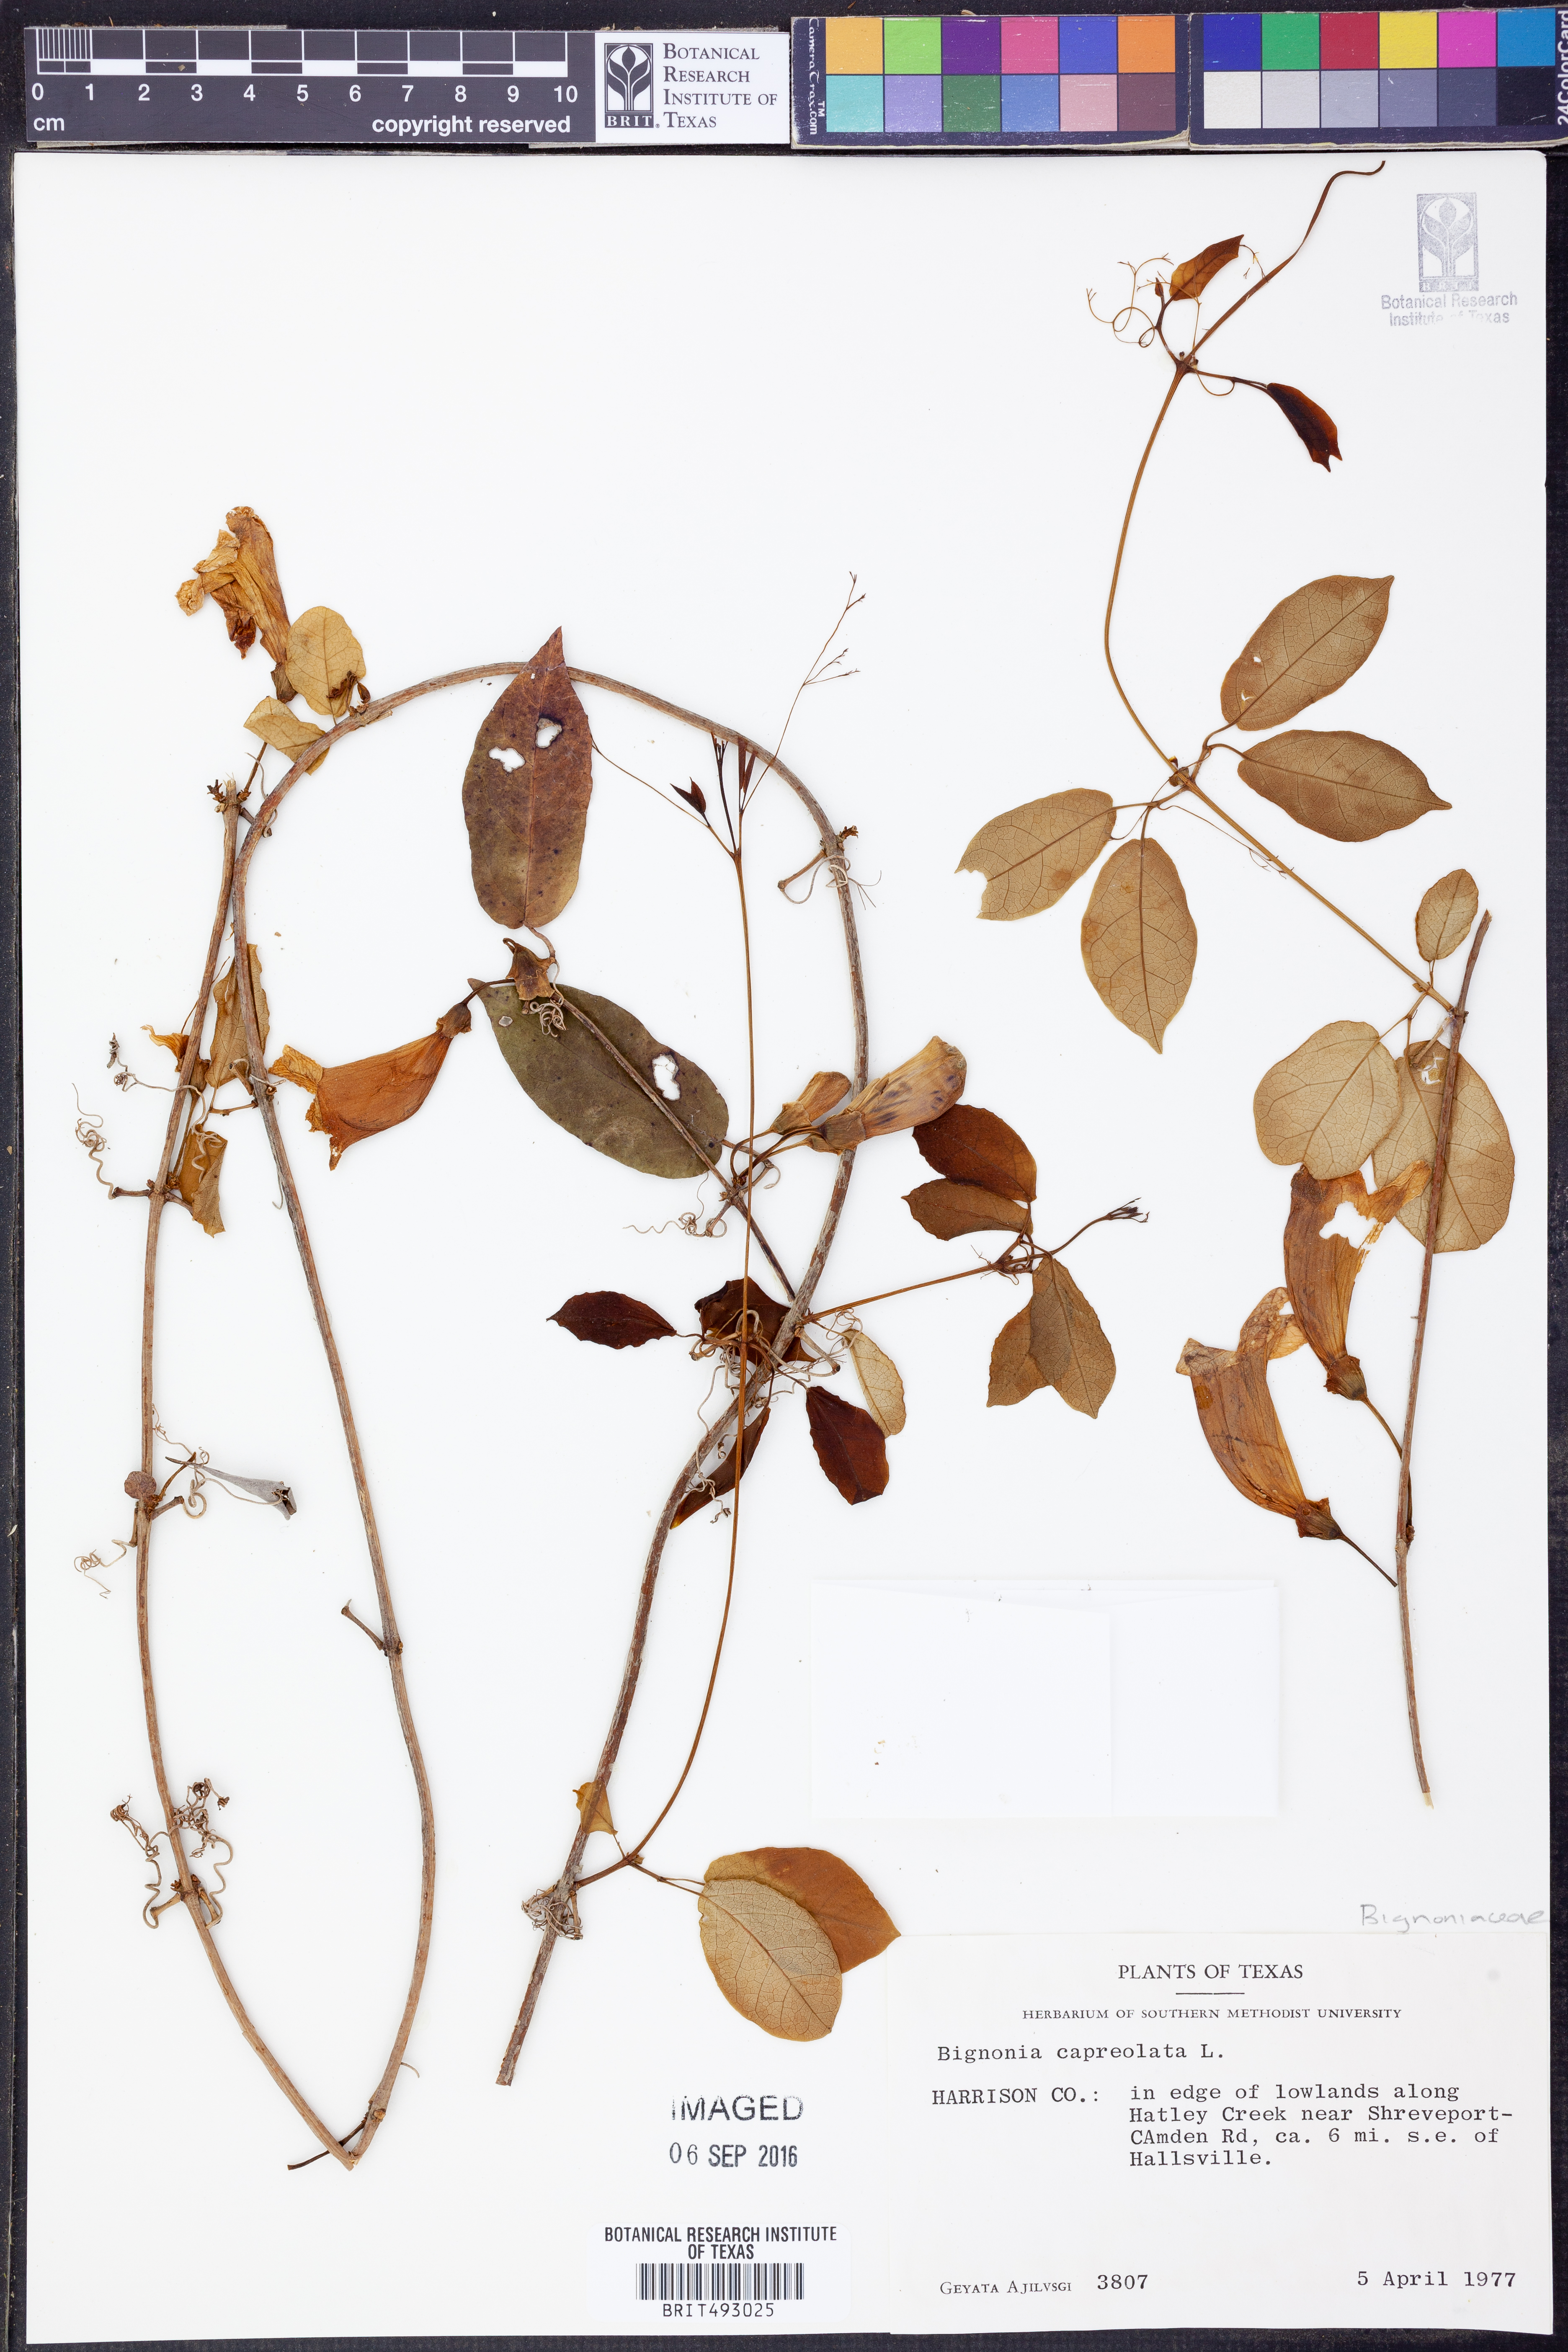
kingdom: Plantae
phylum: Tracheophyta
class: Magnoliopsida
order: Lamiales
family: Bignoniaceae
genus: Bignonia
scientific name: Bignonia capreolata
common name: Crossvine
